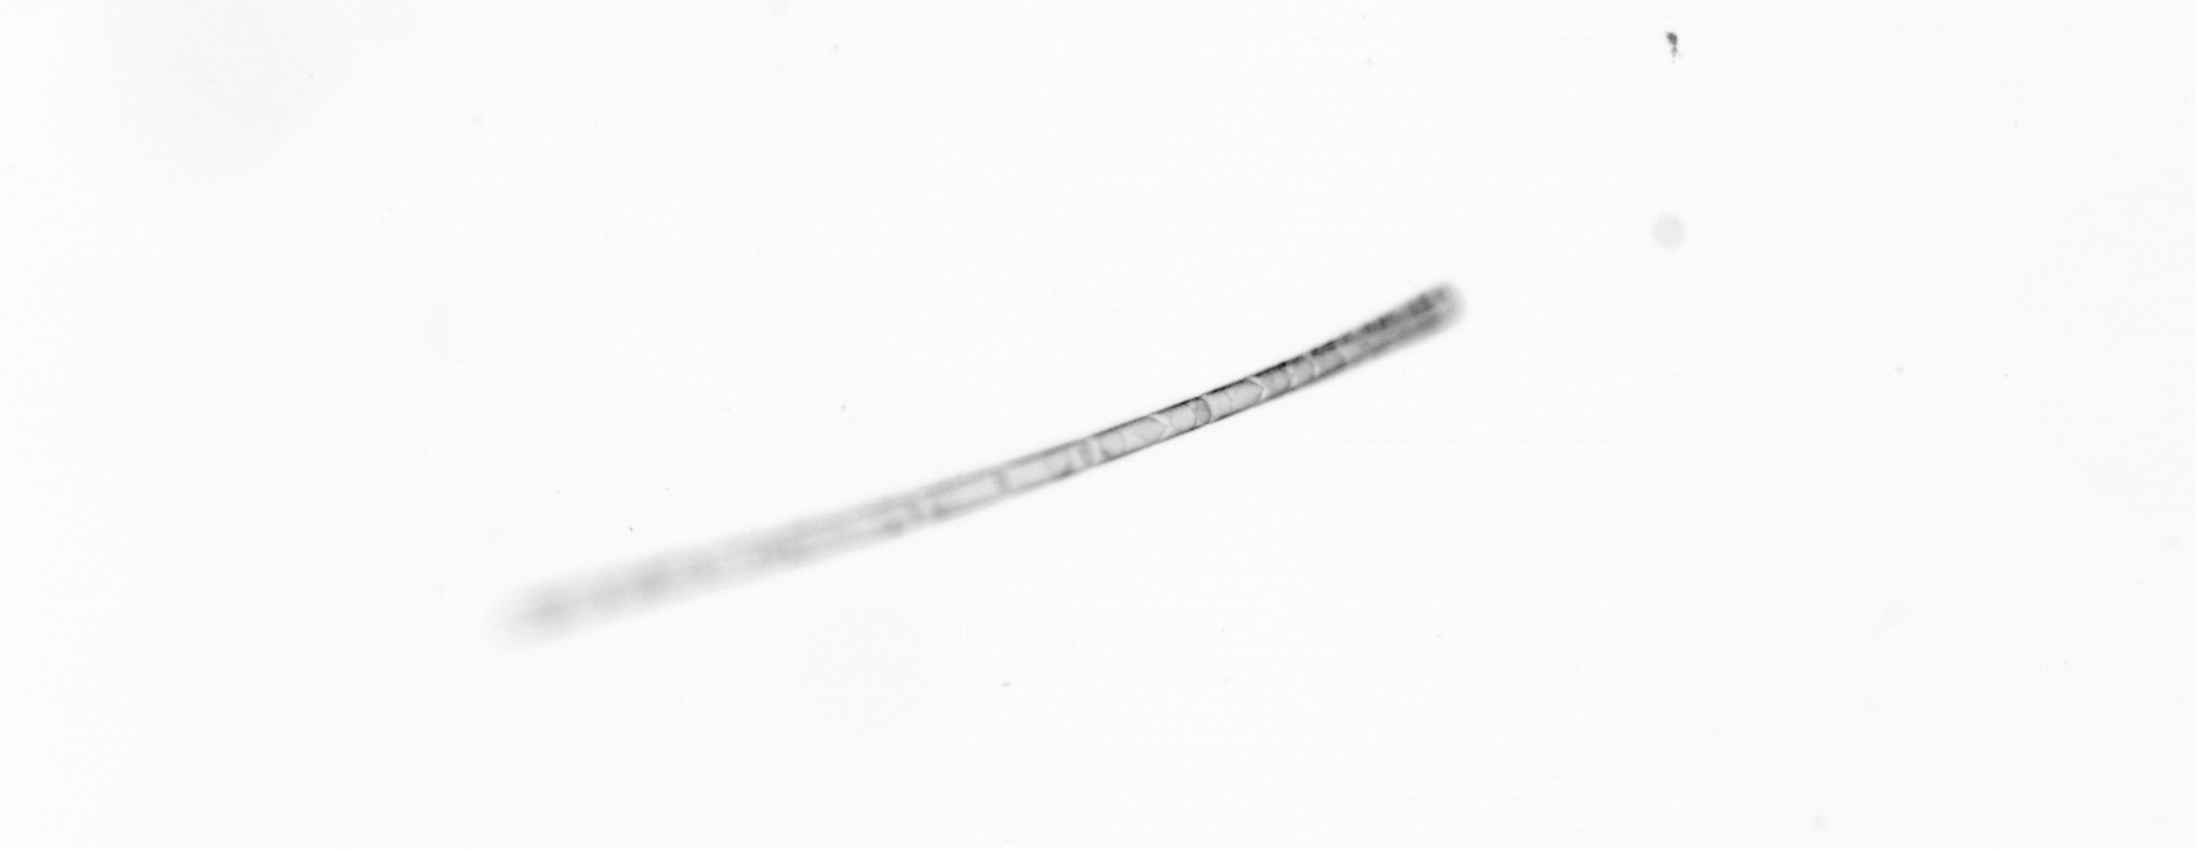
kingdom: Chromista
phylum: Ochrophyta
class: Bacillariophyceae
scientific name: Bacillariophyceae
